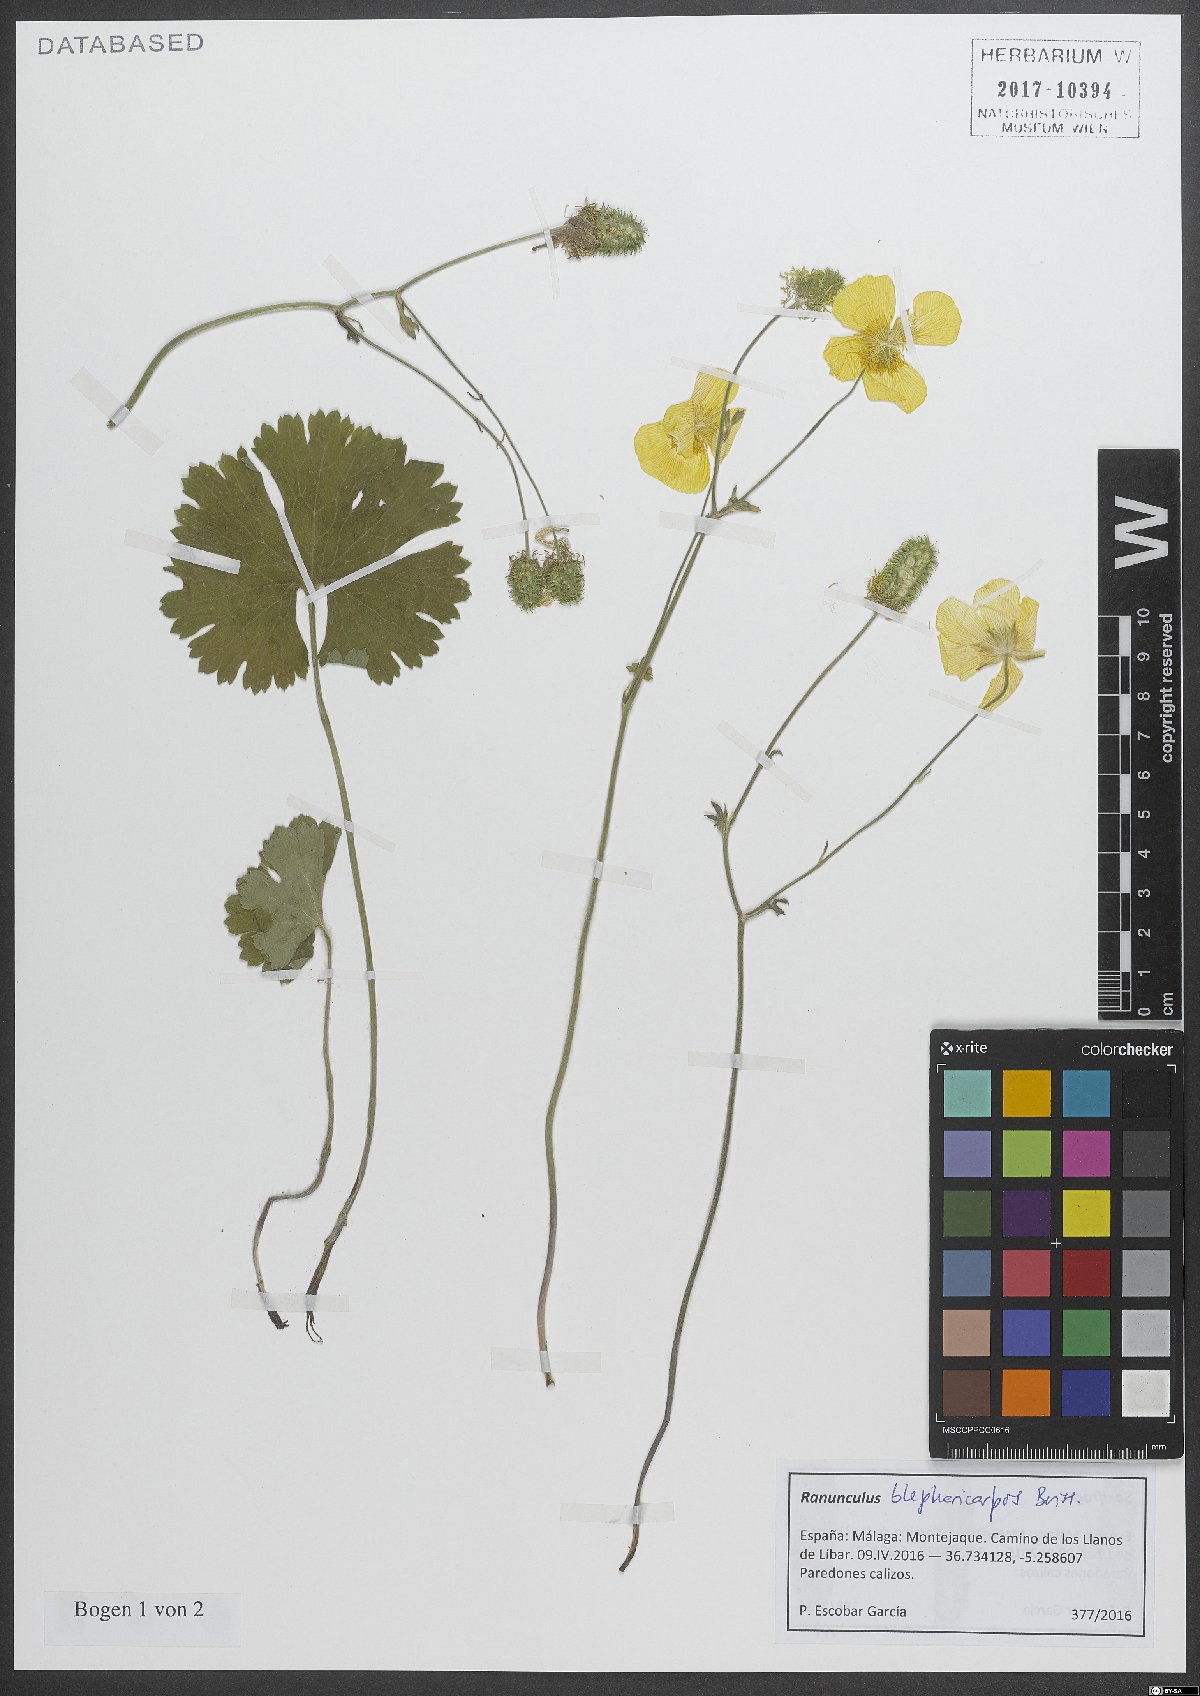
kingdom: Plantae
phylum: Tracheophyta
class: Magnoliopsida
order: Ranunculales
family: Ranunculaceae
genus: Ranunculus
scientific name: Ranunculus spicatus
